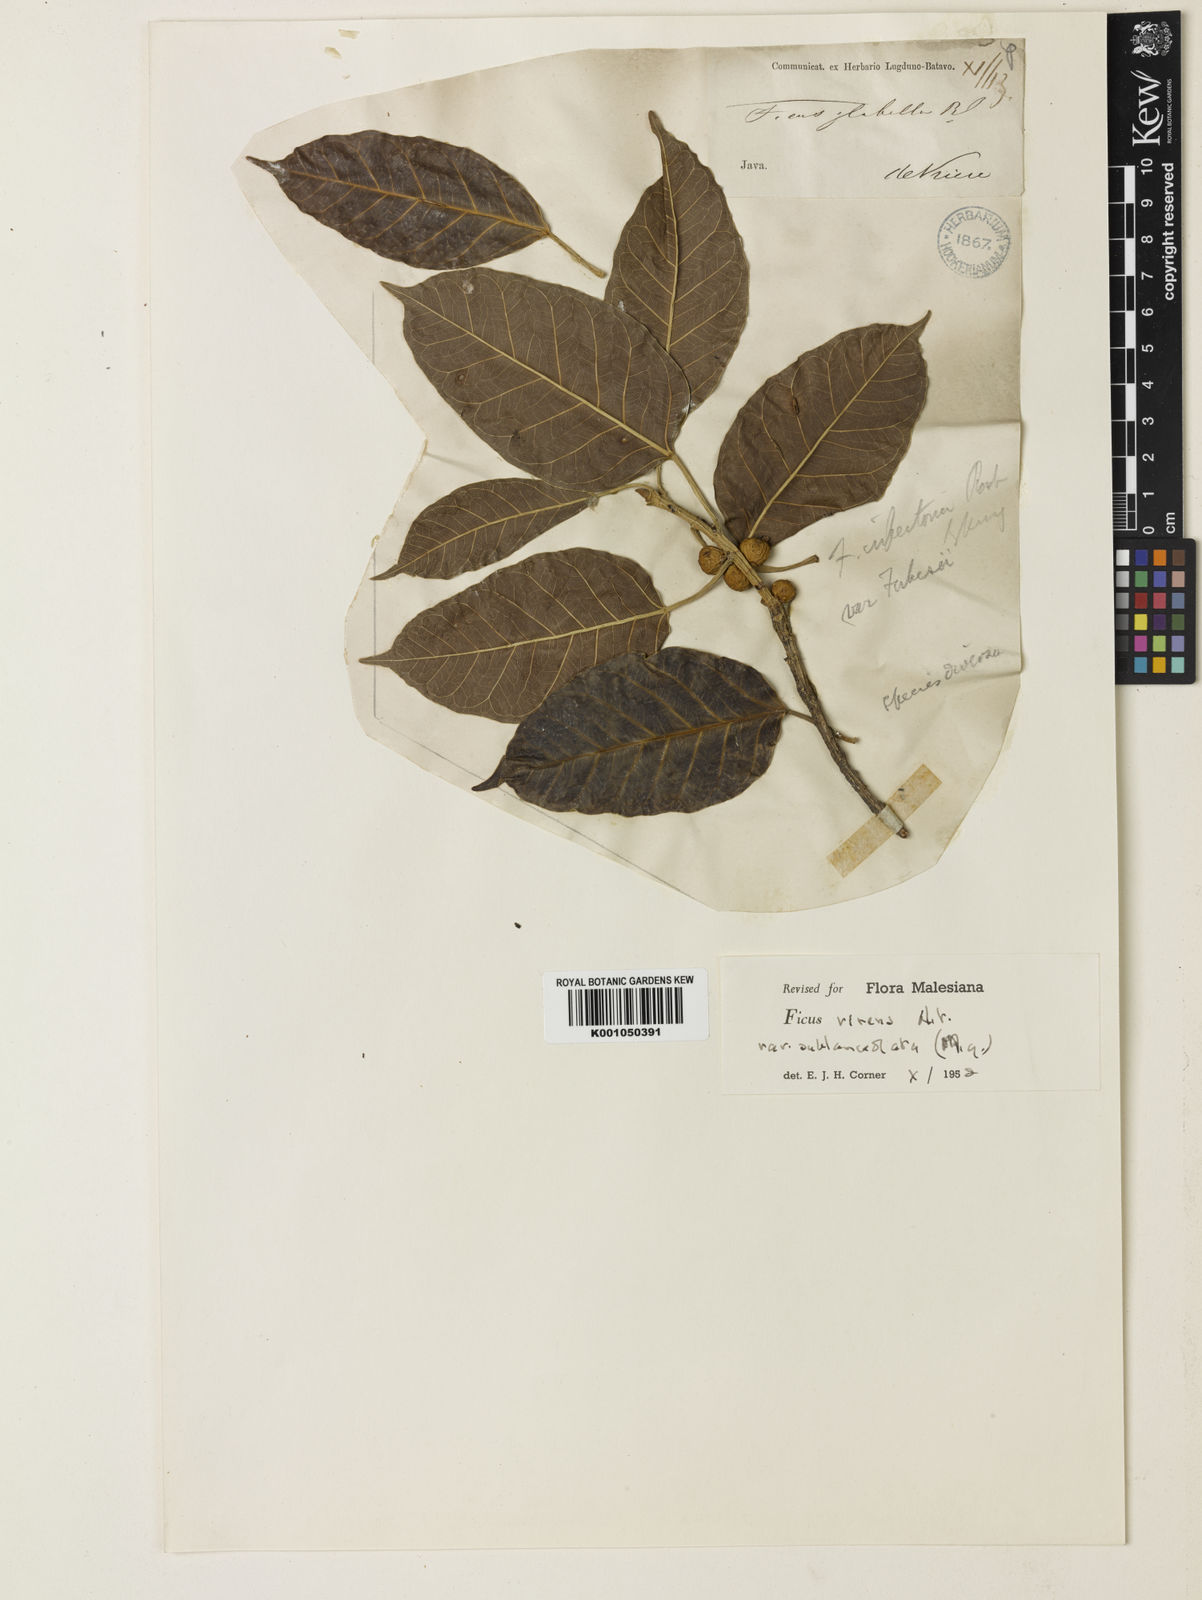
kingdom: Plantae
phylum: Tracheophyta
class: Magnoliopsida
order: Rosales
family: Moraceae
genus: Ficus
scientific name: Ficus virens
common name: Spotted fig
